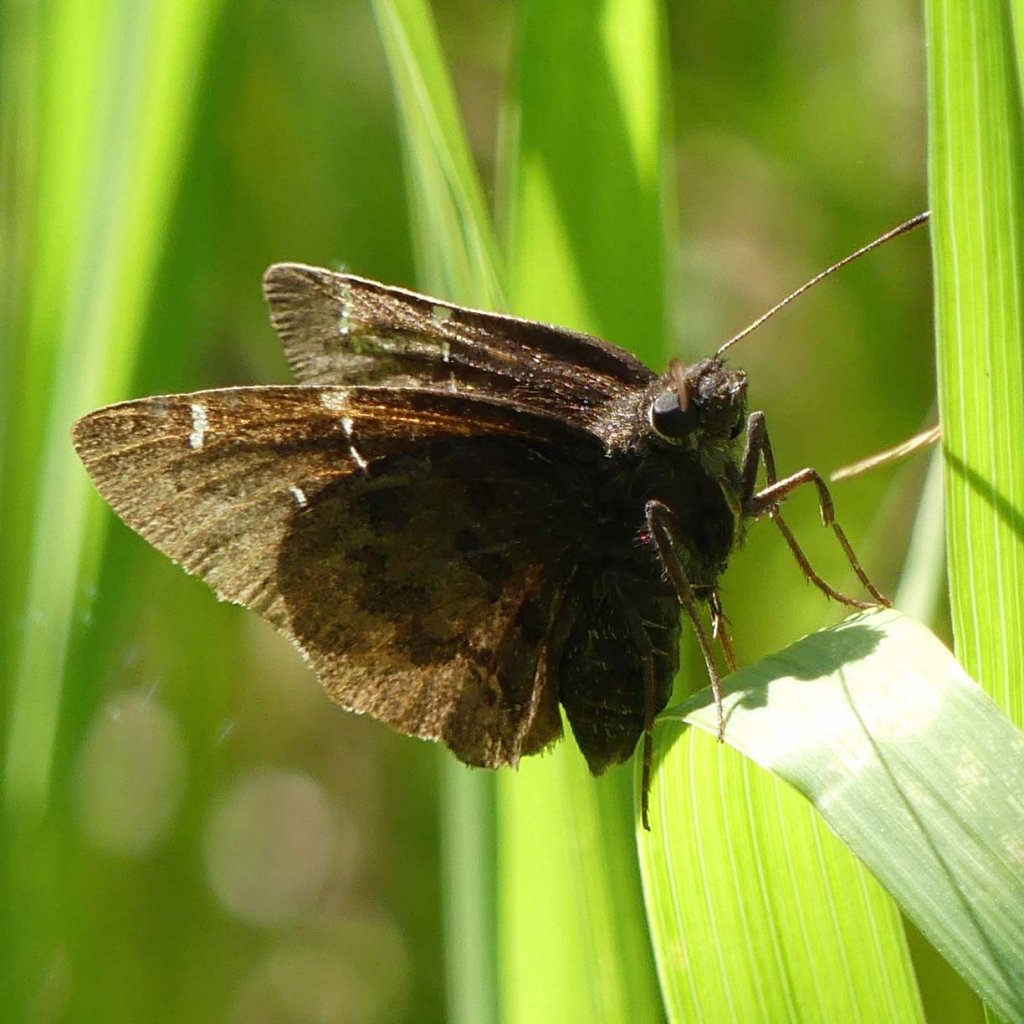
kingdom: Animalia
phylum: Arthropoda
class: Insecta
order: Lepidoptera
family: Hesperiidae
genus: Autochton
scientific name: Autochton
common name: Northern Cloudywing
